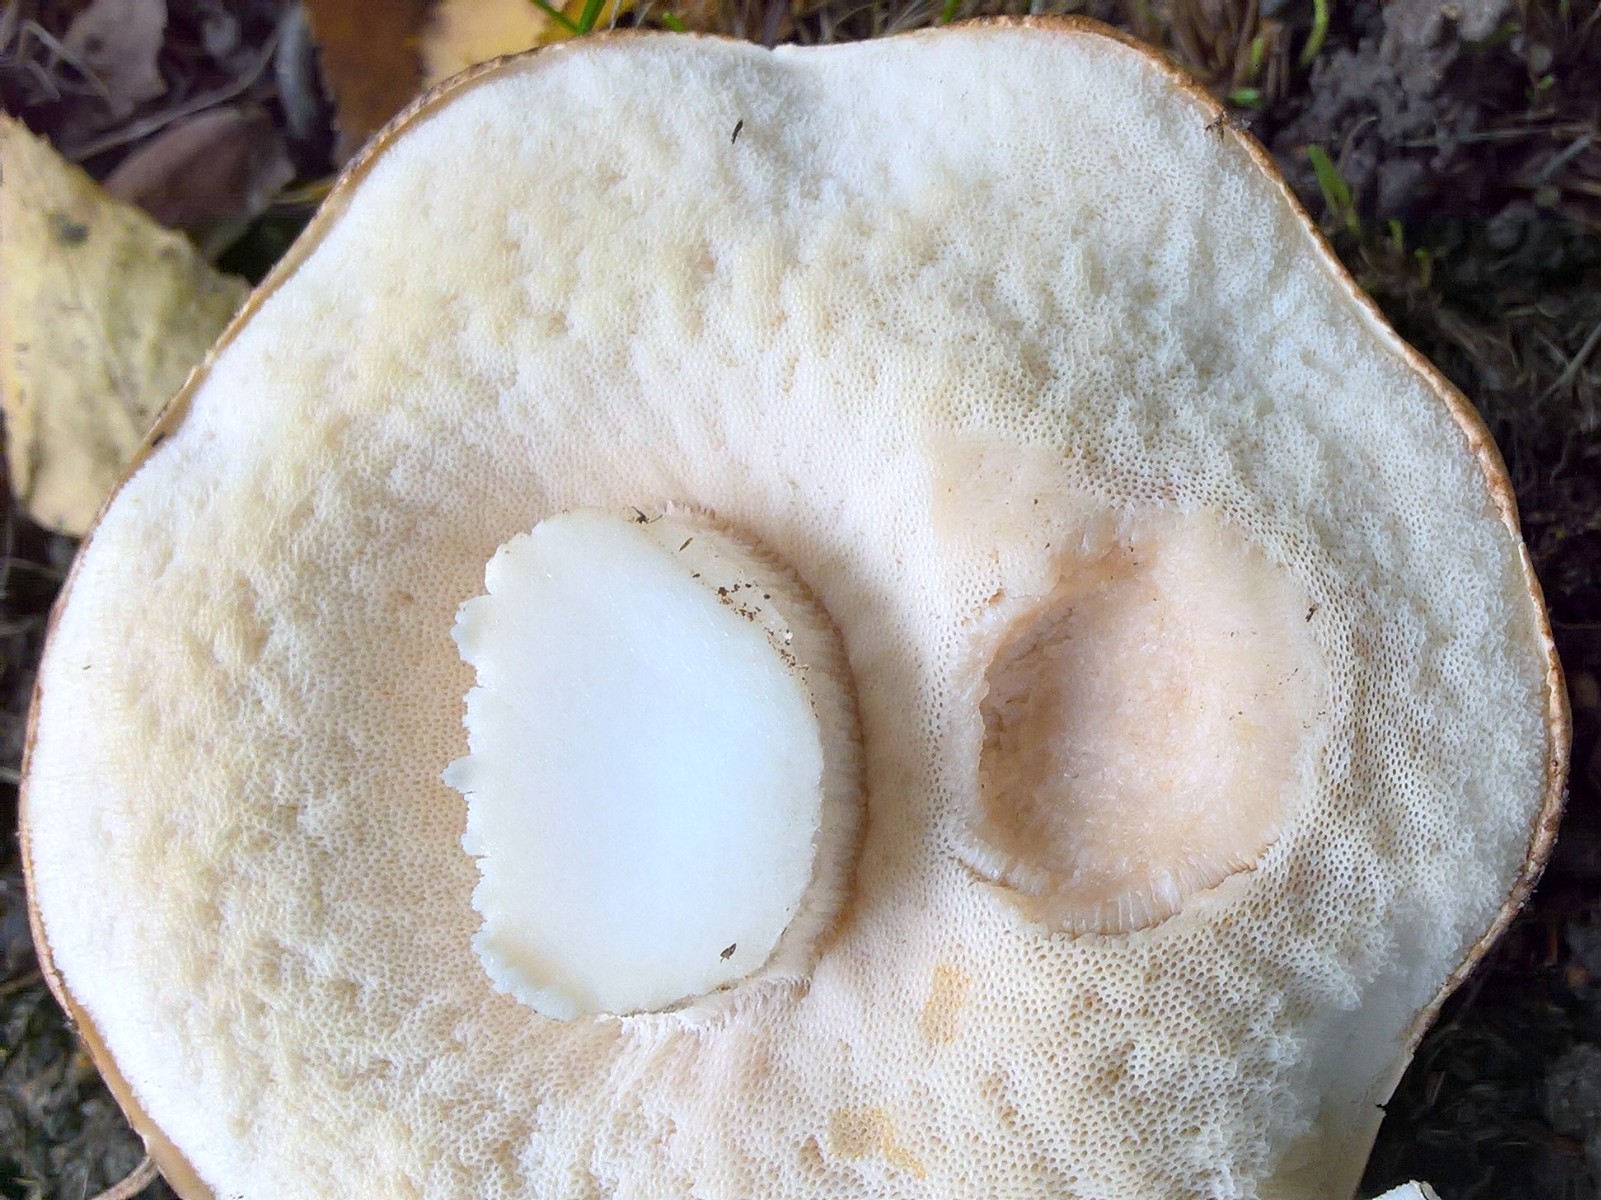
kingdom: Fungi
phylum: Basidiomycota
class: Agaricomycetes
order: Boletales
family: Boletaceae
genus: Leccinum
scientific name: Leccinum scabrum
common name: brun skælrørhat
